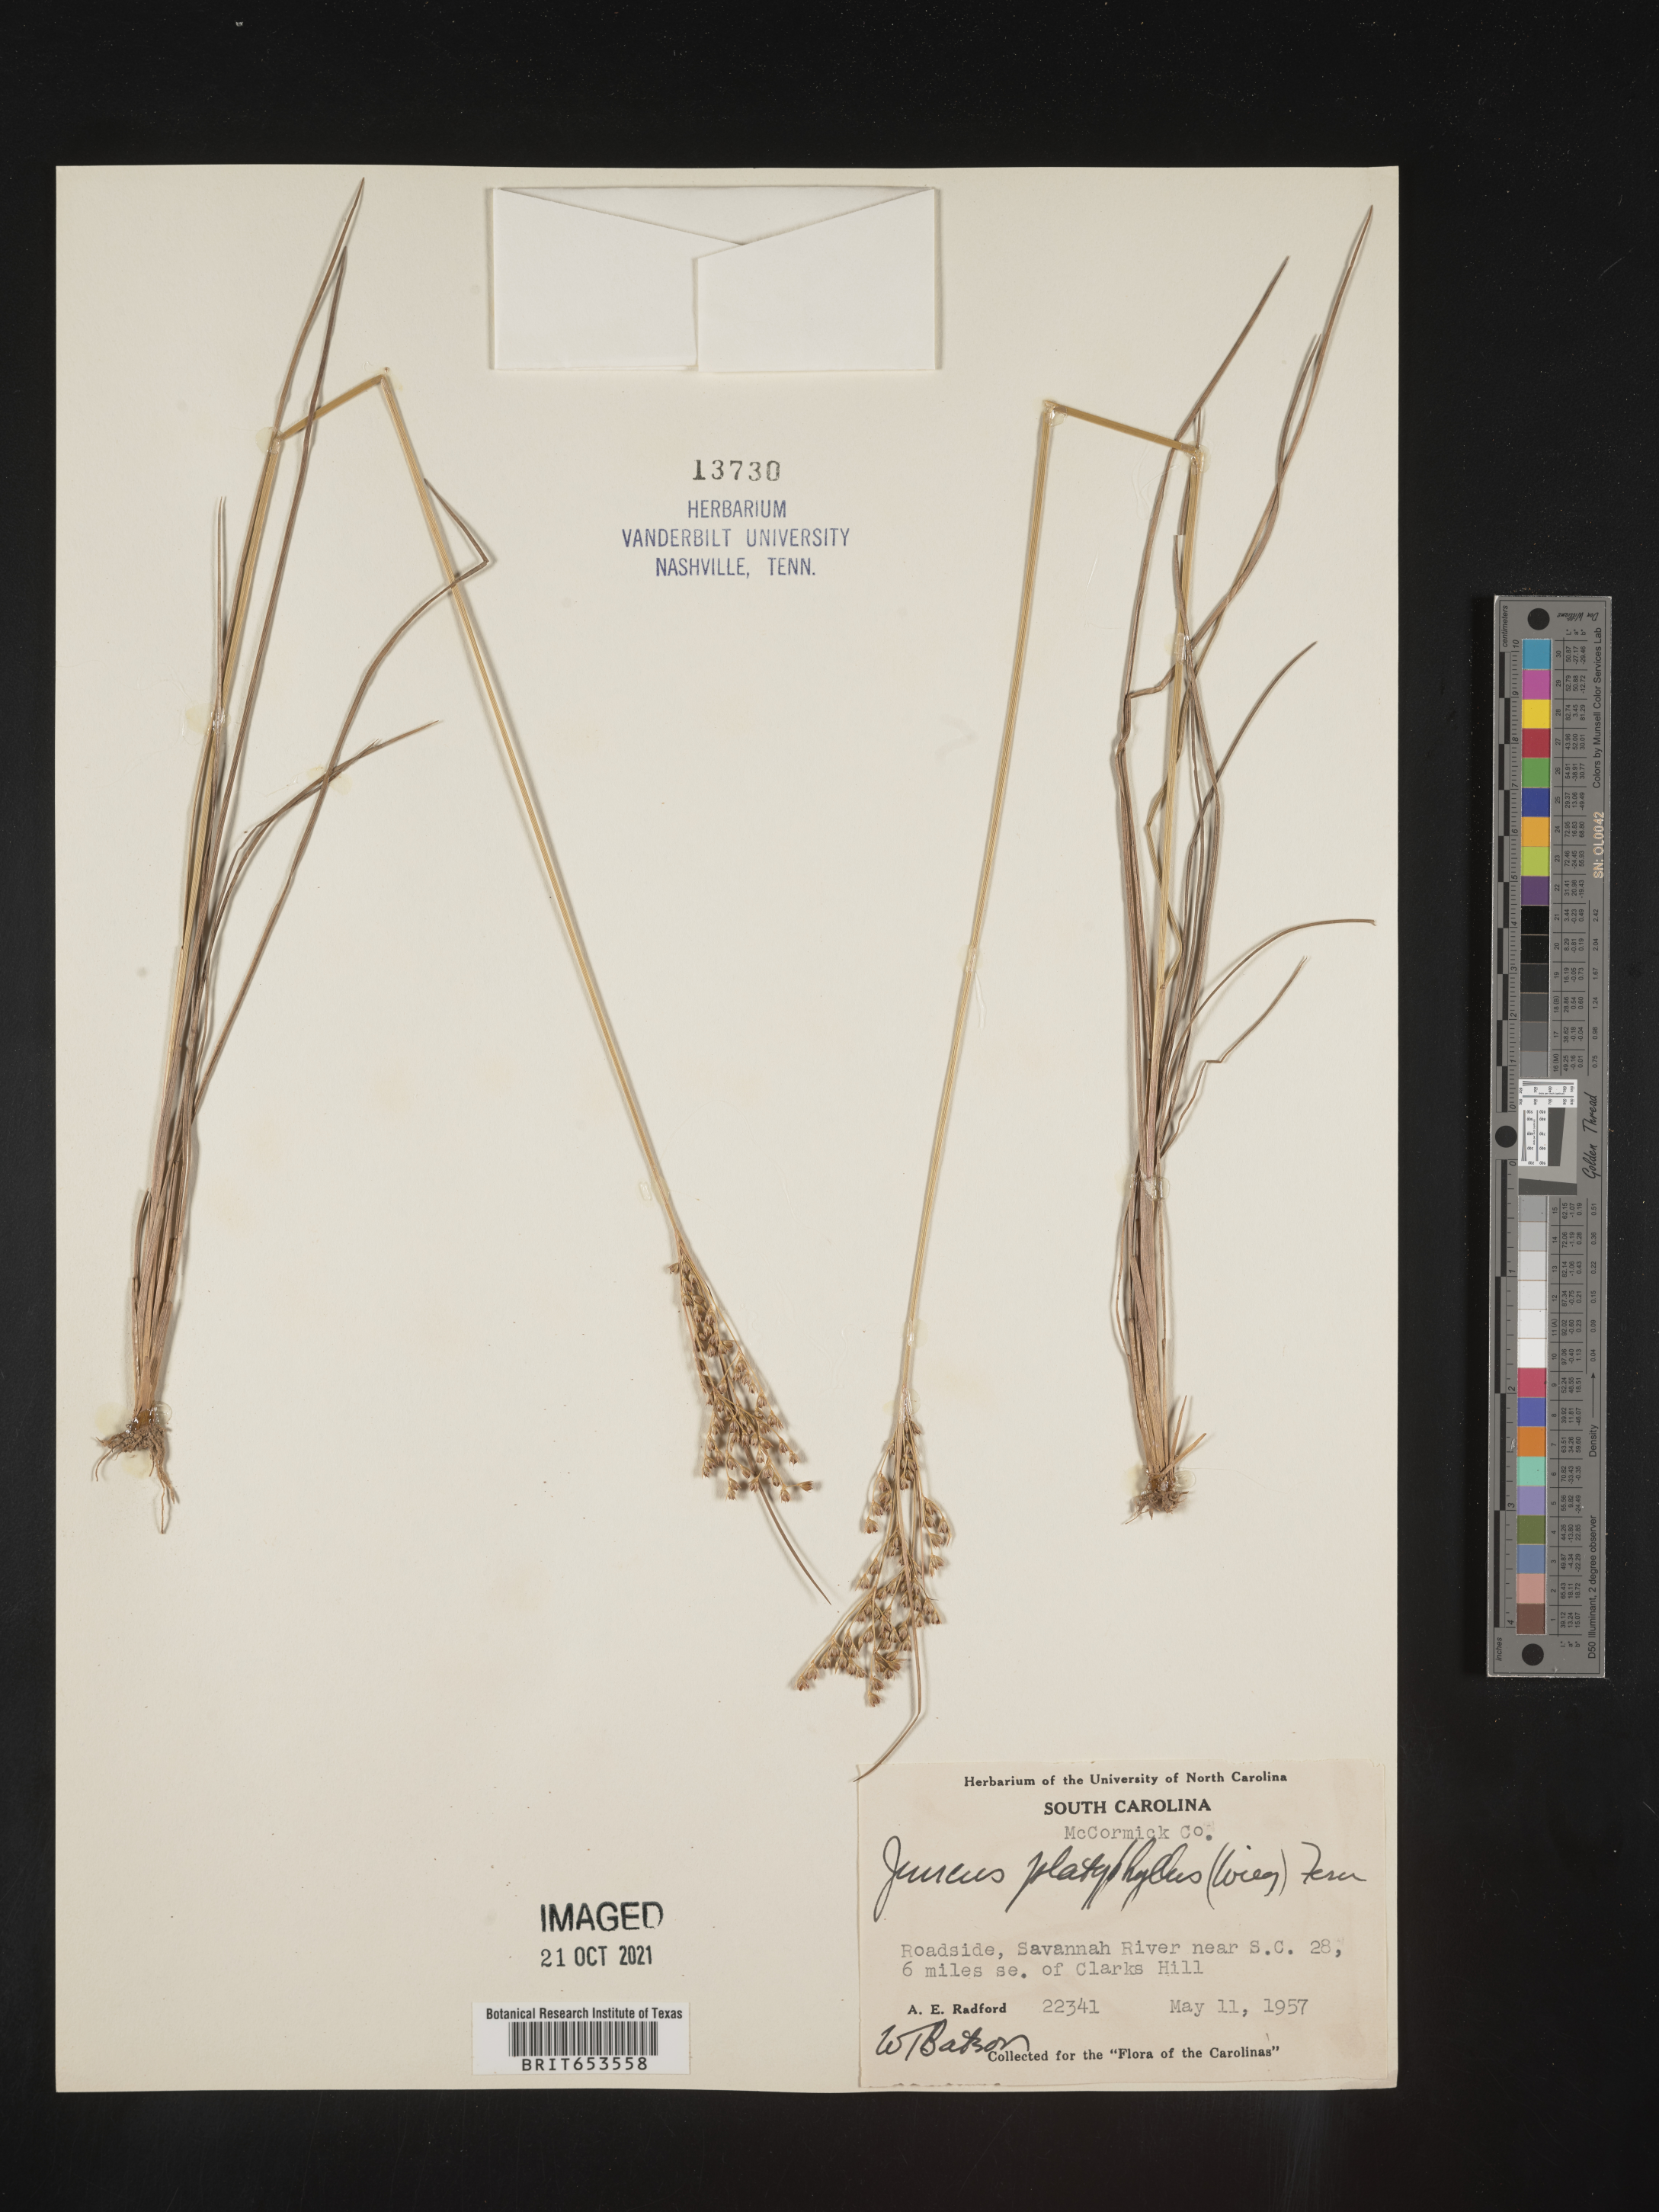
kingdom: Plantae
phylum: Tracheophyta
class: Liliopsida
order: Poales
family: Juncaceae
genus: Juncus
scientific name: Juncus dichotomus
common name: Forked rush
